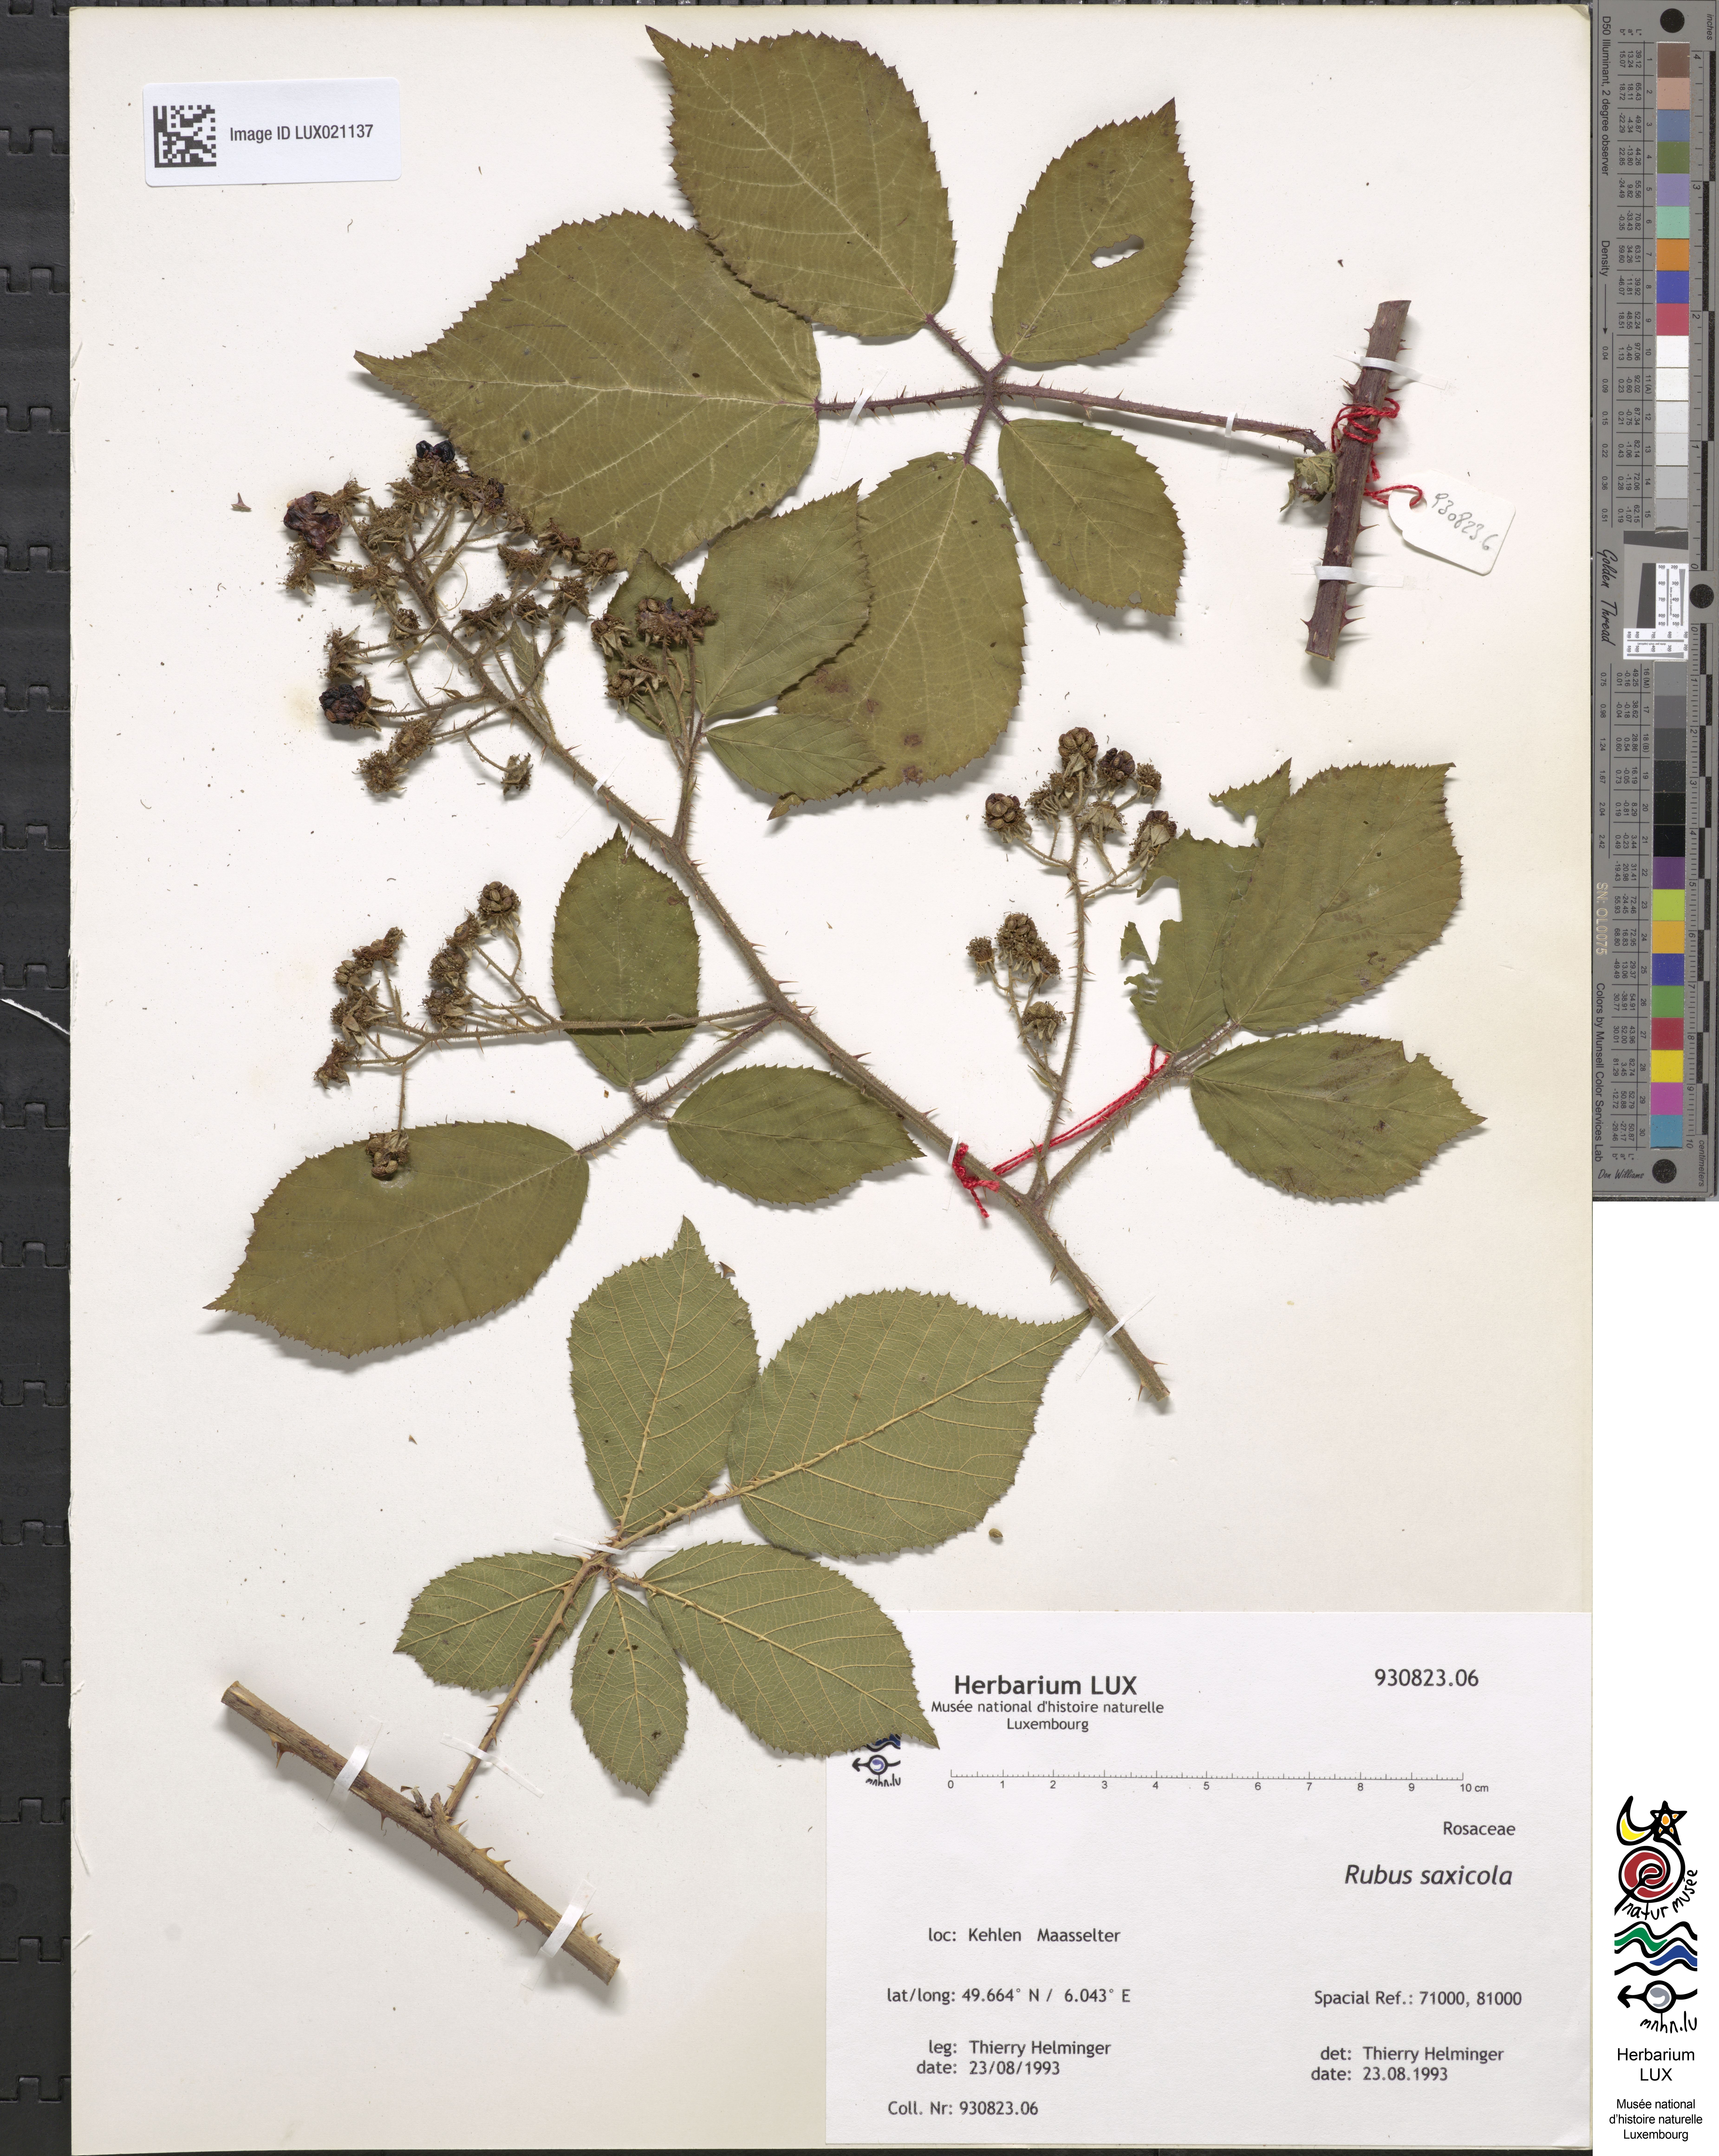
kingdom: Plantae
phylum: Tracheophyta
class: Magnoliopsida
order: Rosales
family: Rosaceae
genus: Rubus
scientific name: Rubus saxicola
